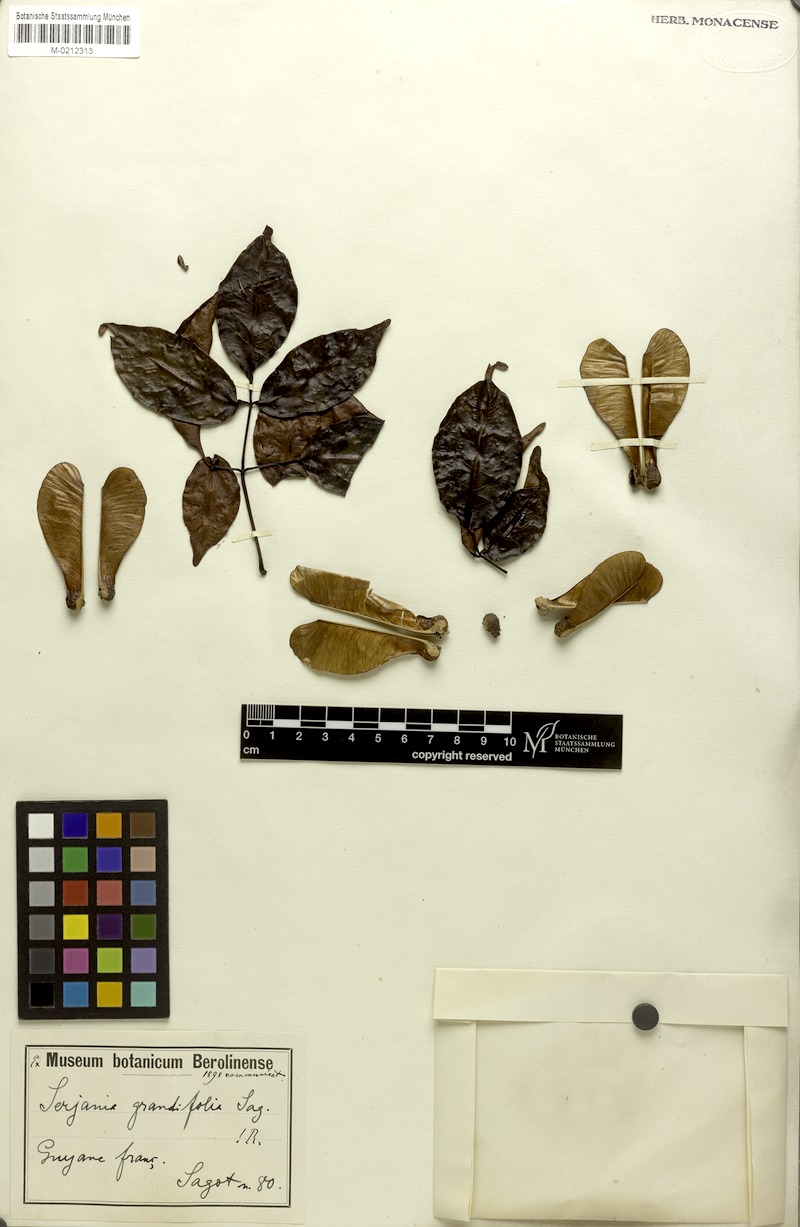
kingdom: Plantae
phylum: Tracheophyta
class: Magnoliopsida
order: Sapindales
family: Sapindaceae
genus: Serjania
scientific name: Serjania grandifolia
